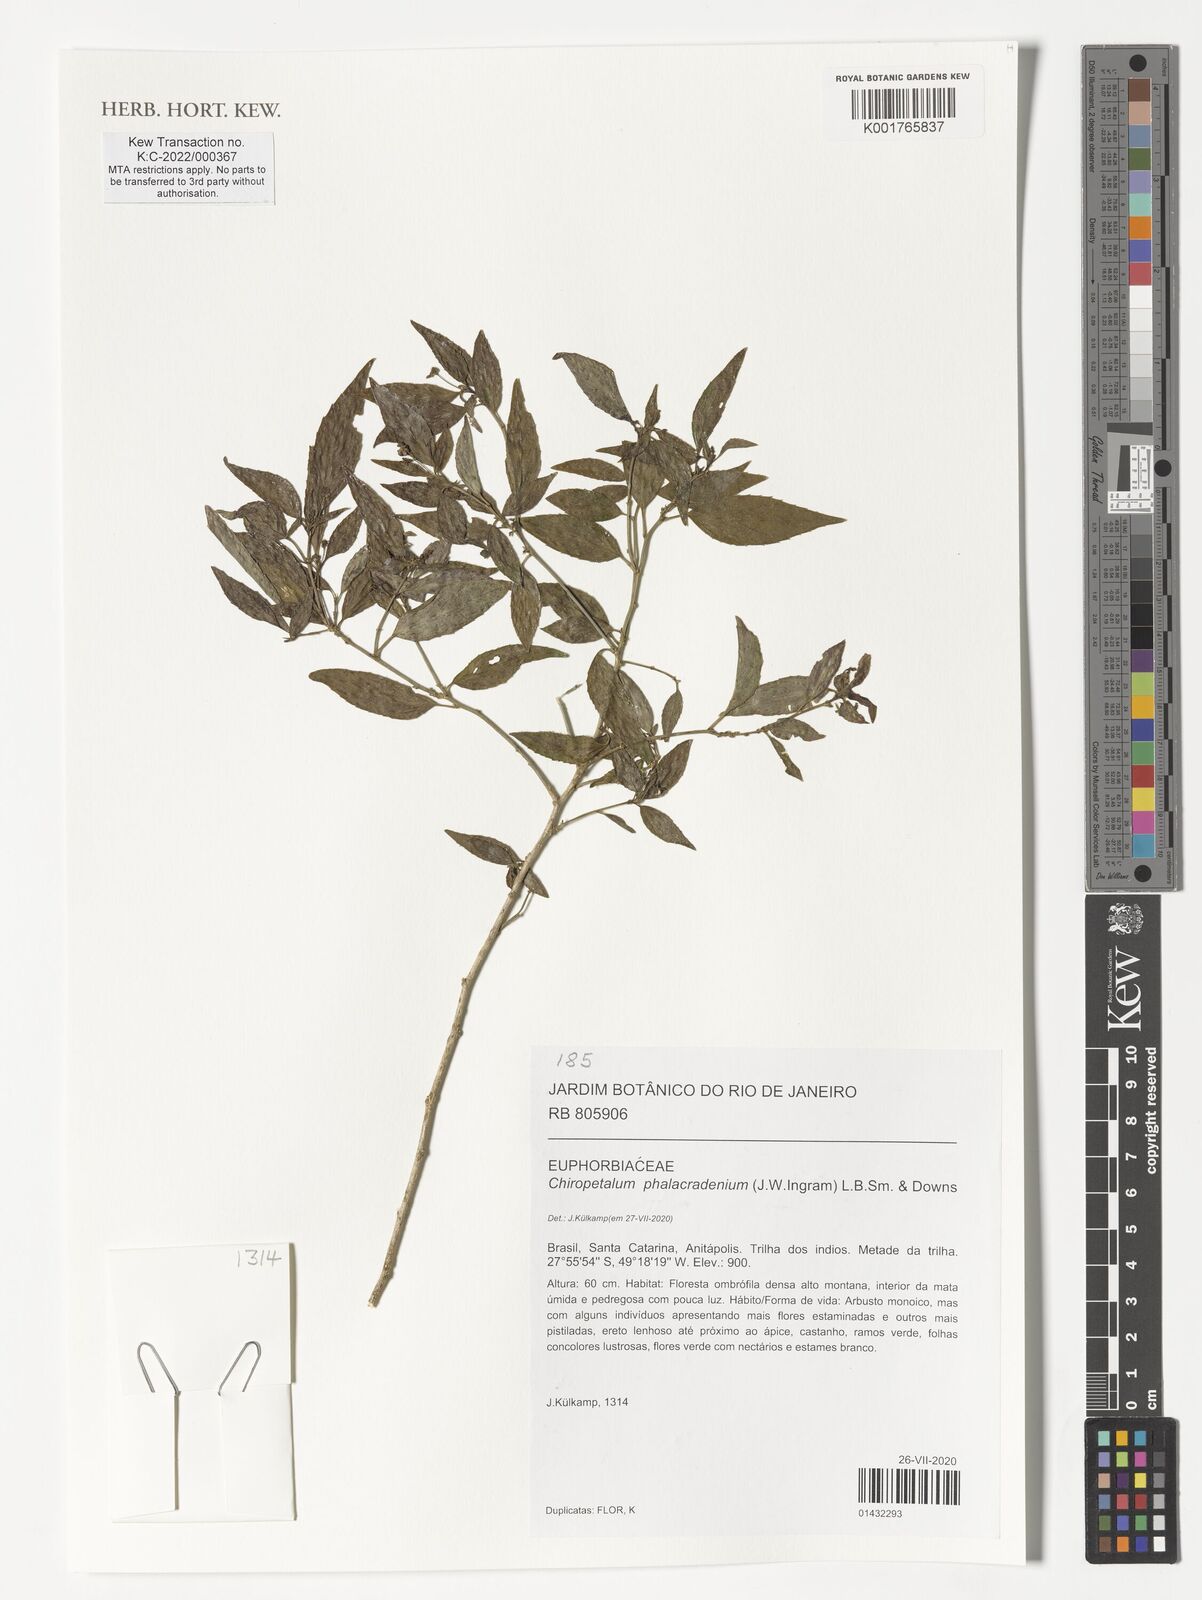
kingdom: Plantae
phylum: Tracheophyta
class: Magnoliopsida
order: Malpighiales
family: Euphorbiaceae
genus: Chiropetalum
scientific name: Chiropetalum phalacradenium
